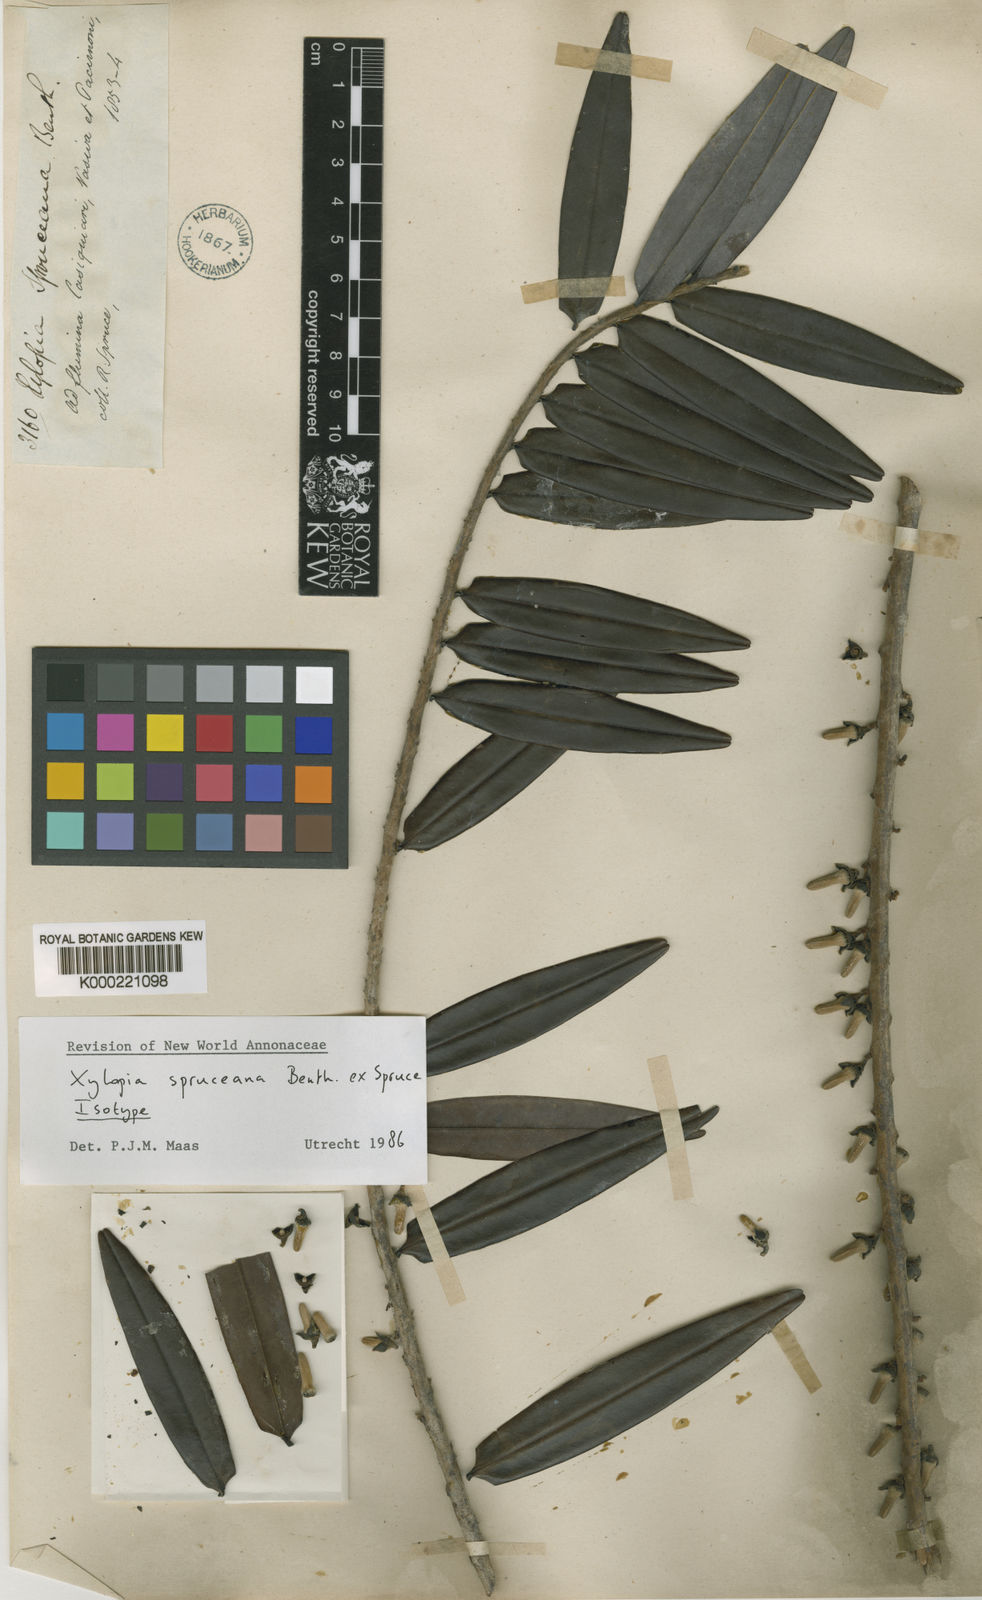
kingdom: Plantae
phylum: Tracheophyta
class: Magnoliopsida
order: Magnoliales
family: Annonaceae
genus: Xylopia
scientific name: Xylopia spruceana
